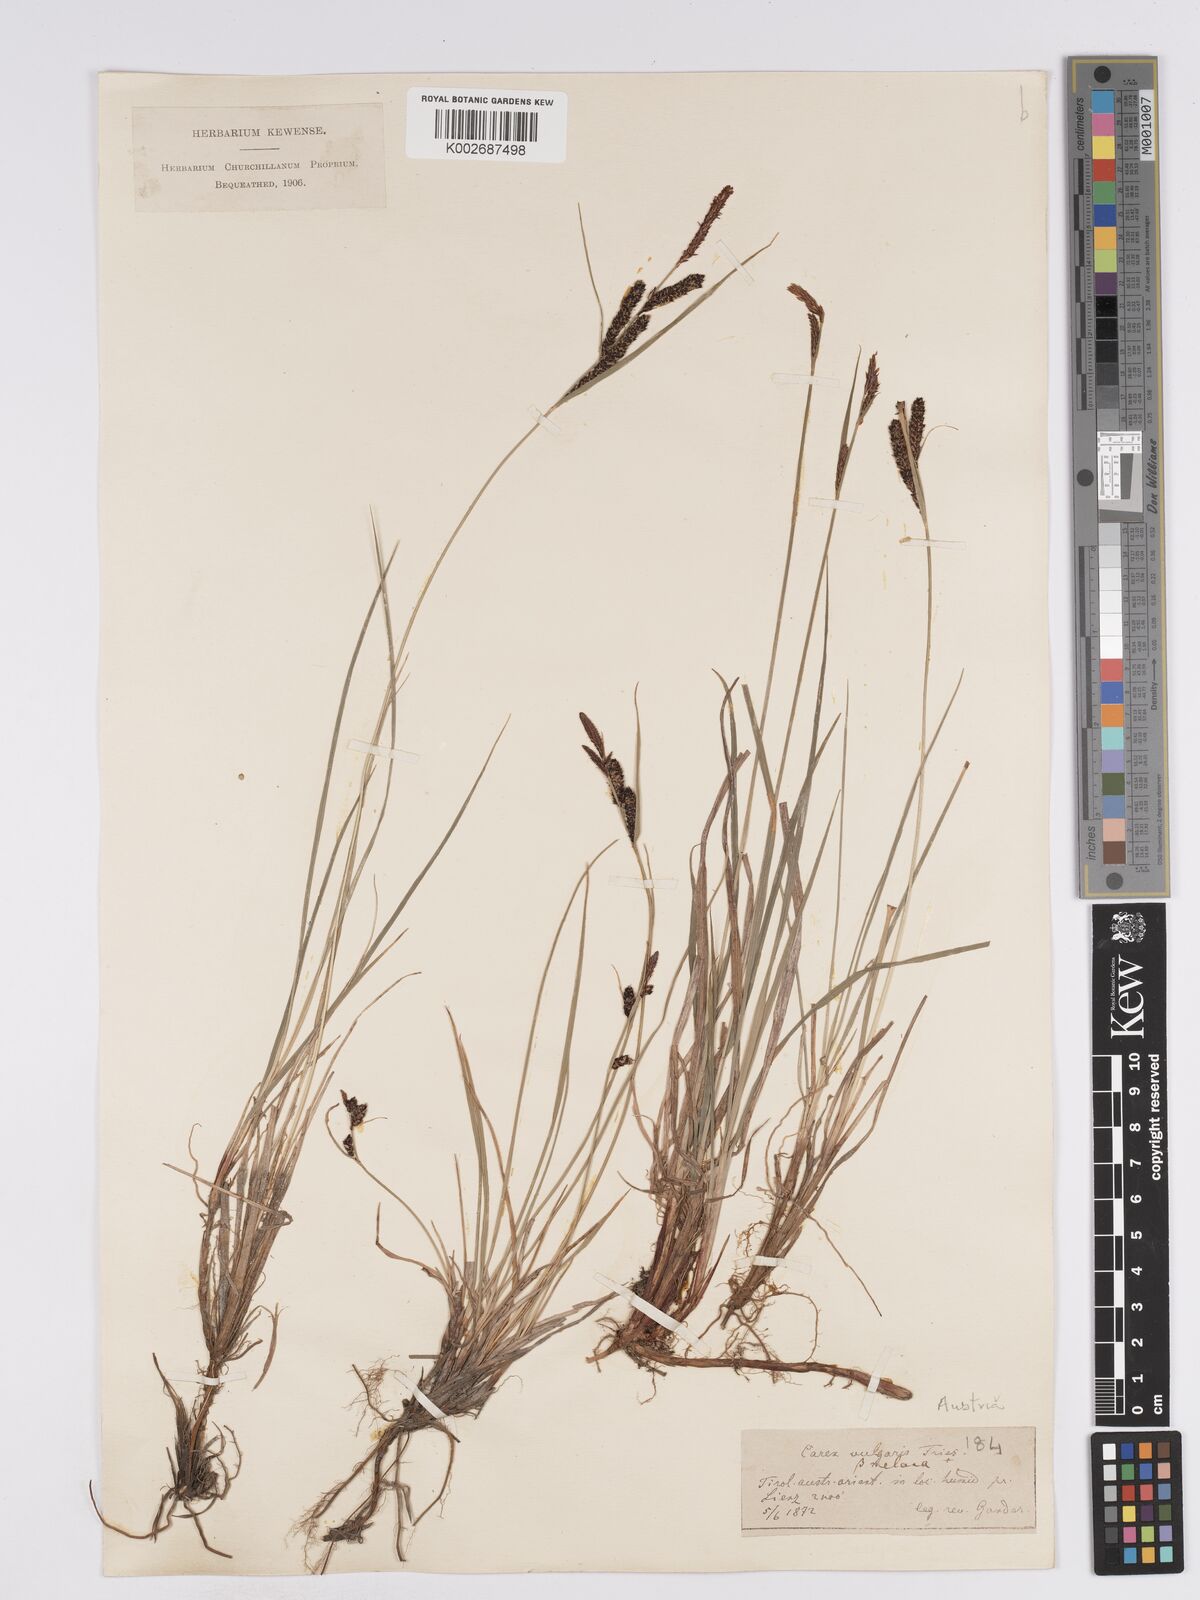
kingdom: Plantae
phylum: Tracheophyta
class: Liliopsida
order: Poales
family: Cyperaceae
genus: Carex
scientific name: Carex nigra
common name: Common sedge
